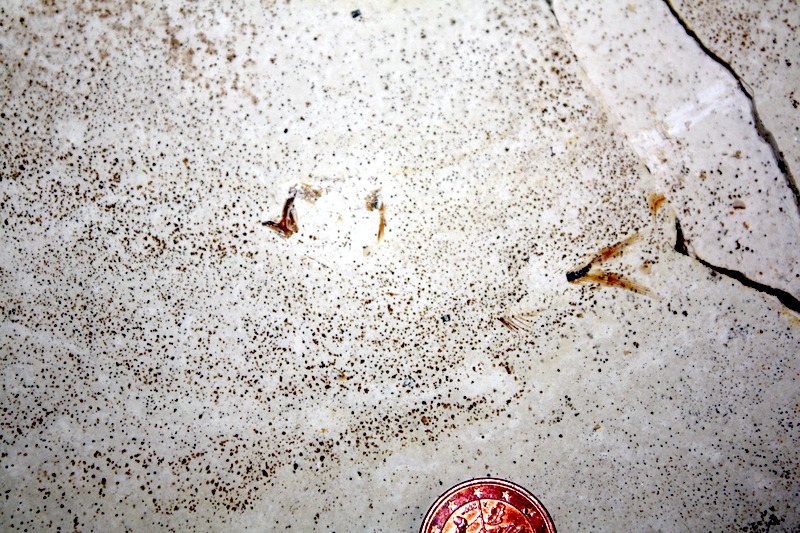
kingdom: Animalia
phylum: Chordata
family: Ascalaboidae
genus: Ebertichthys
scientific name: Ebertichthys ettlingensis
